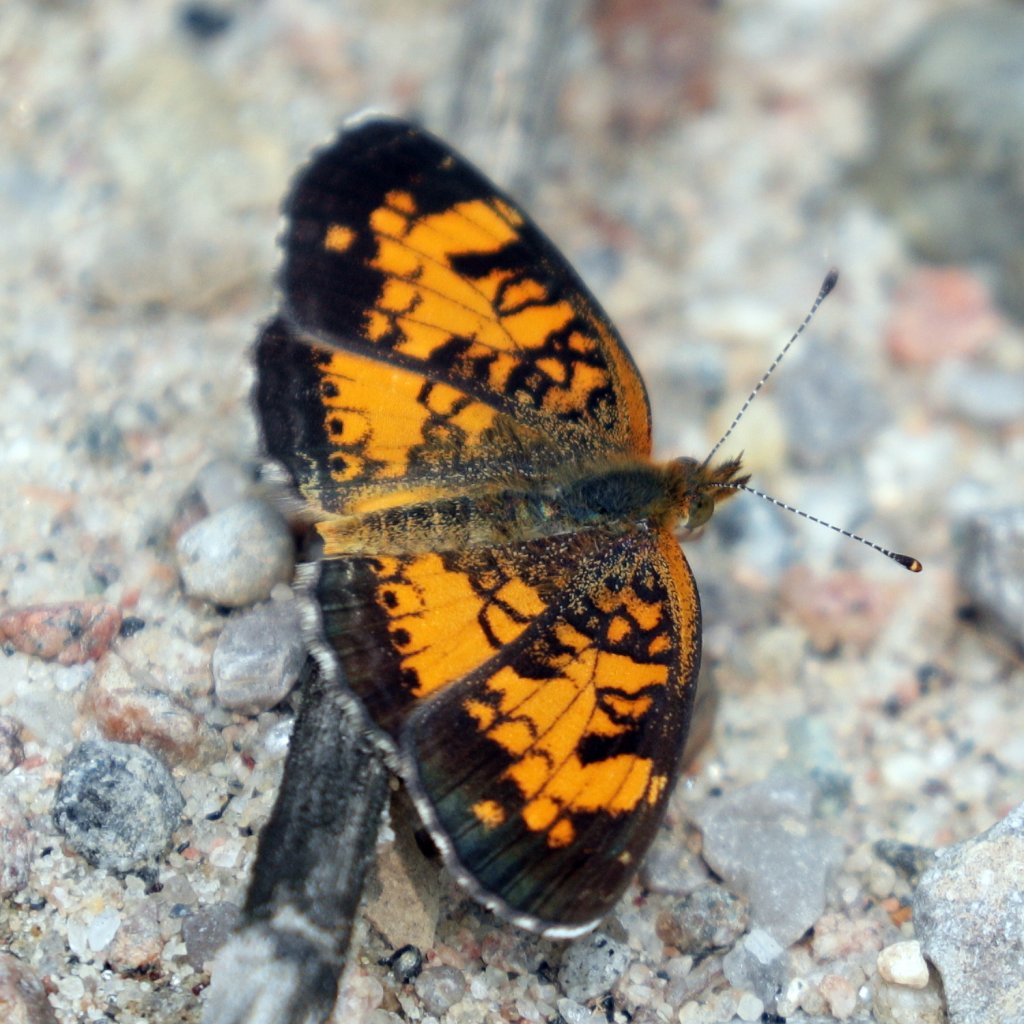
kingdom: Animalia
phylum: Arthropoda
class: Insecta
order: Lepidoptera
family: Nymphalidae
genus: Phyciodes
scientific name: Phyciodes tharos
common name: Northern Crescent
